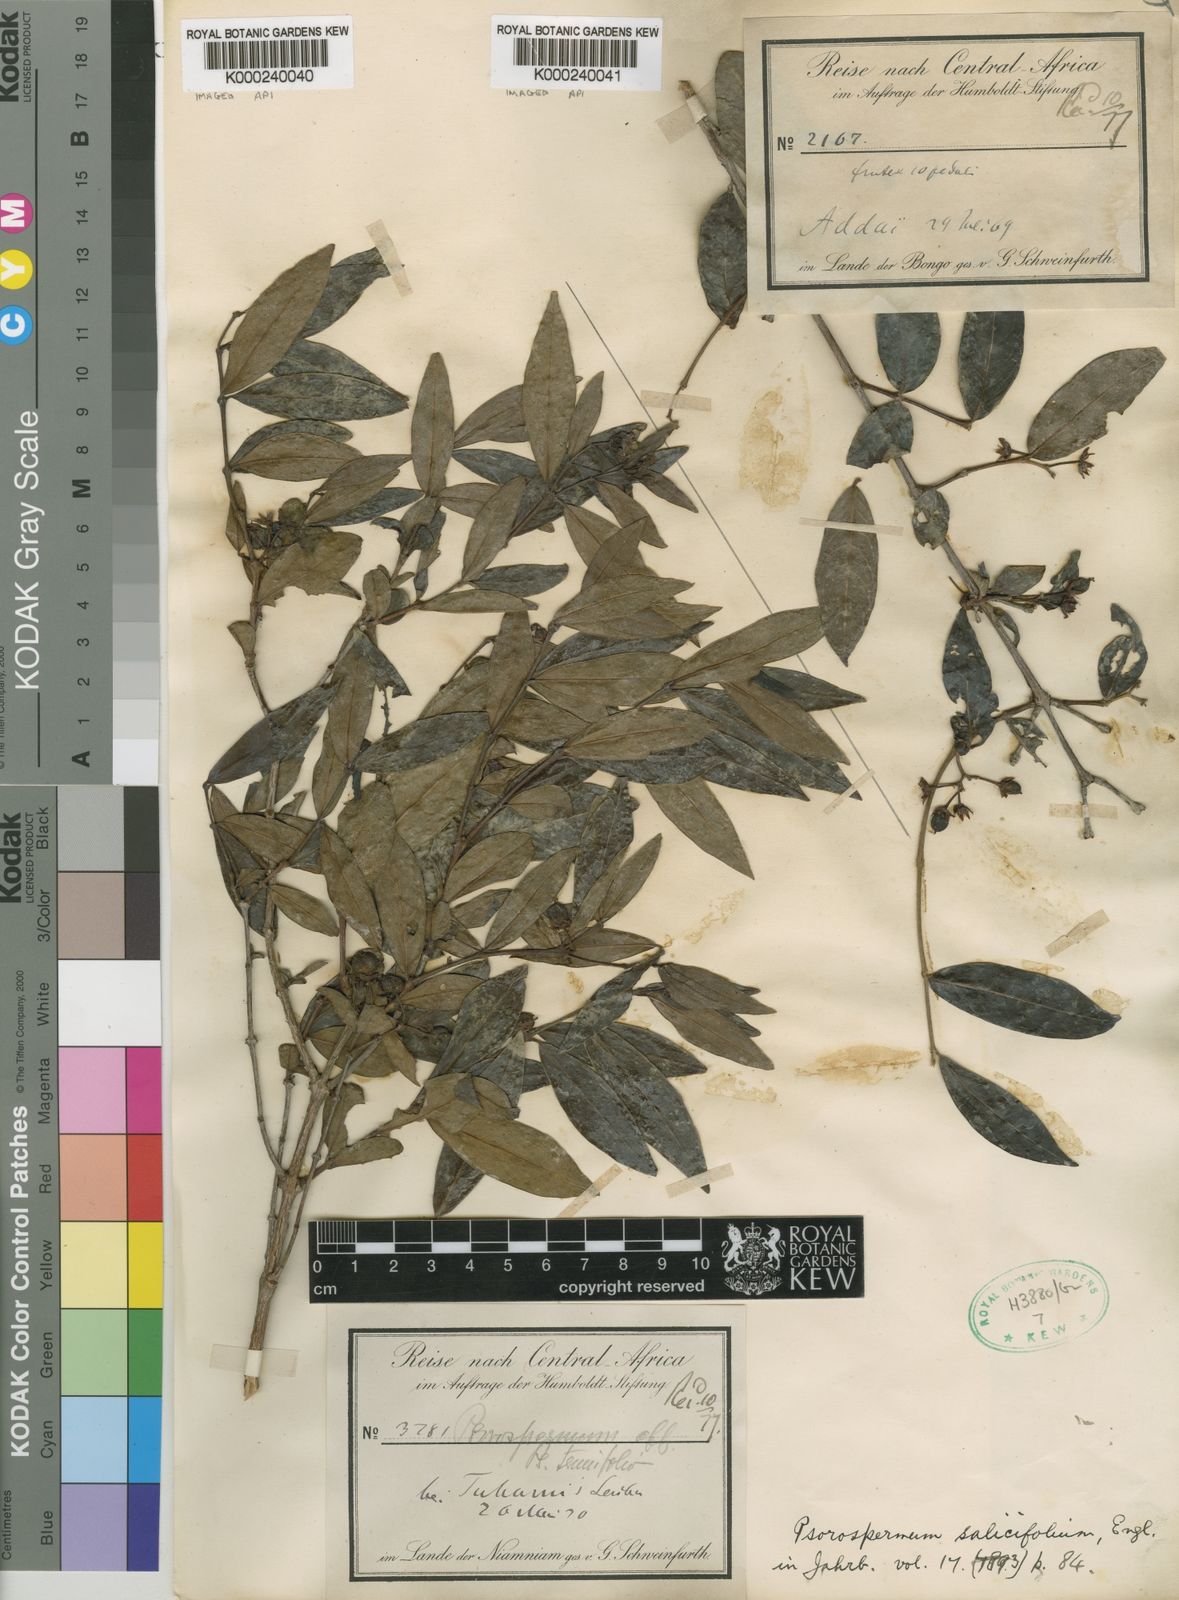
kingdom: Plantae
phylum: Tracheophyta
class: Magnoliopsida
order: Malpighiales
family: Hypericaceae
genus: Psorospermum
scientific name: Psorospermum febrifugum
